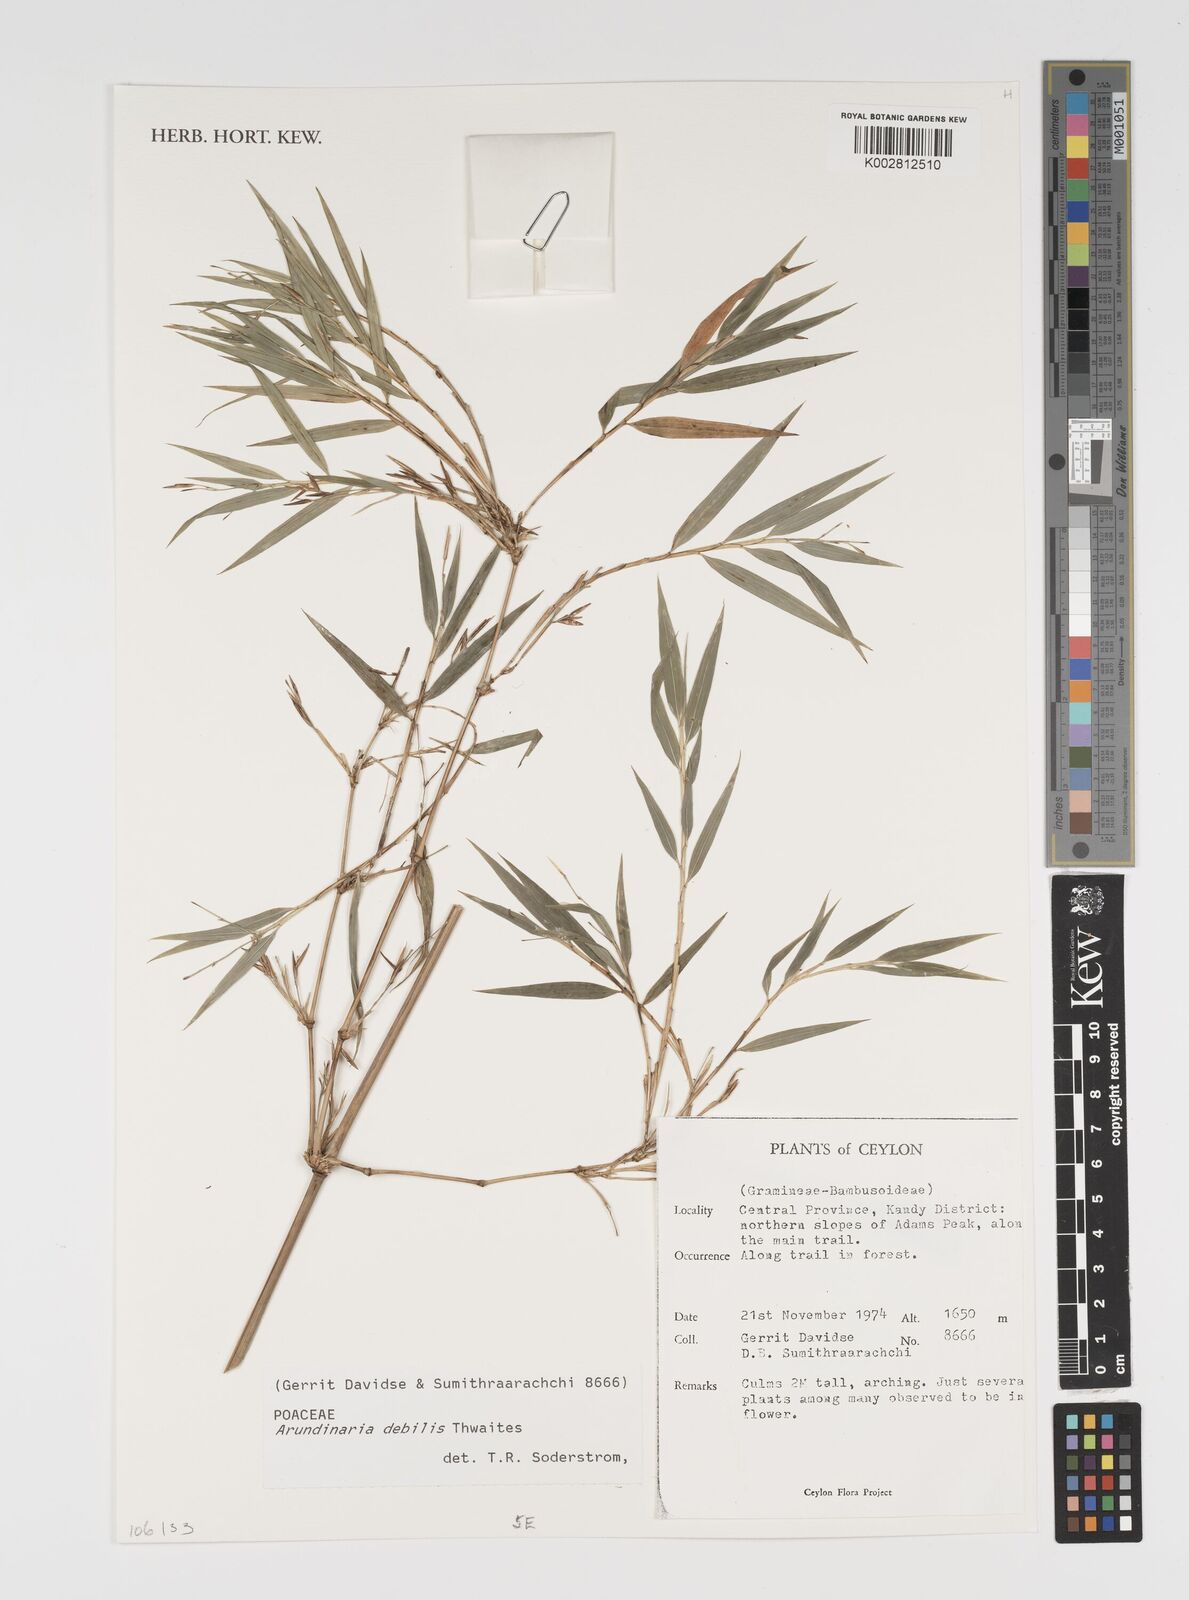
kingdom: Plantae
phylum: Tracheophyta
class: Liliopsida
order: Poales
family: Poaceae
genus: Kuruna
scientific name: Kuruna debilis
